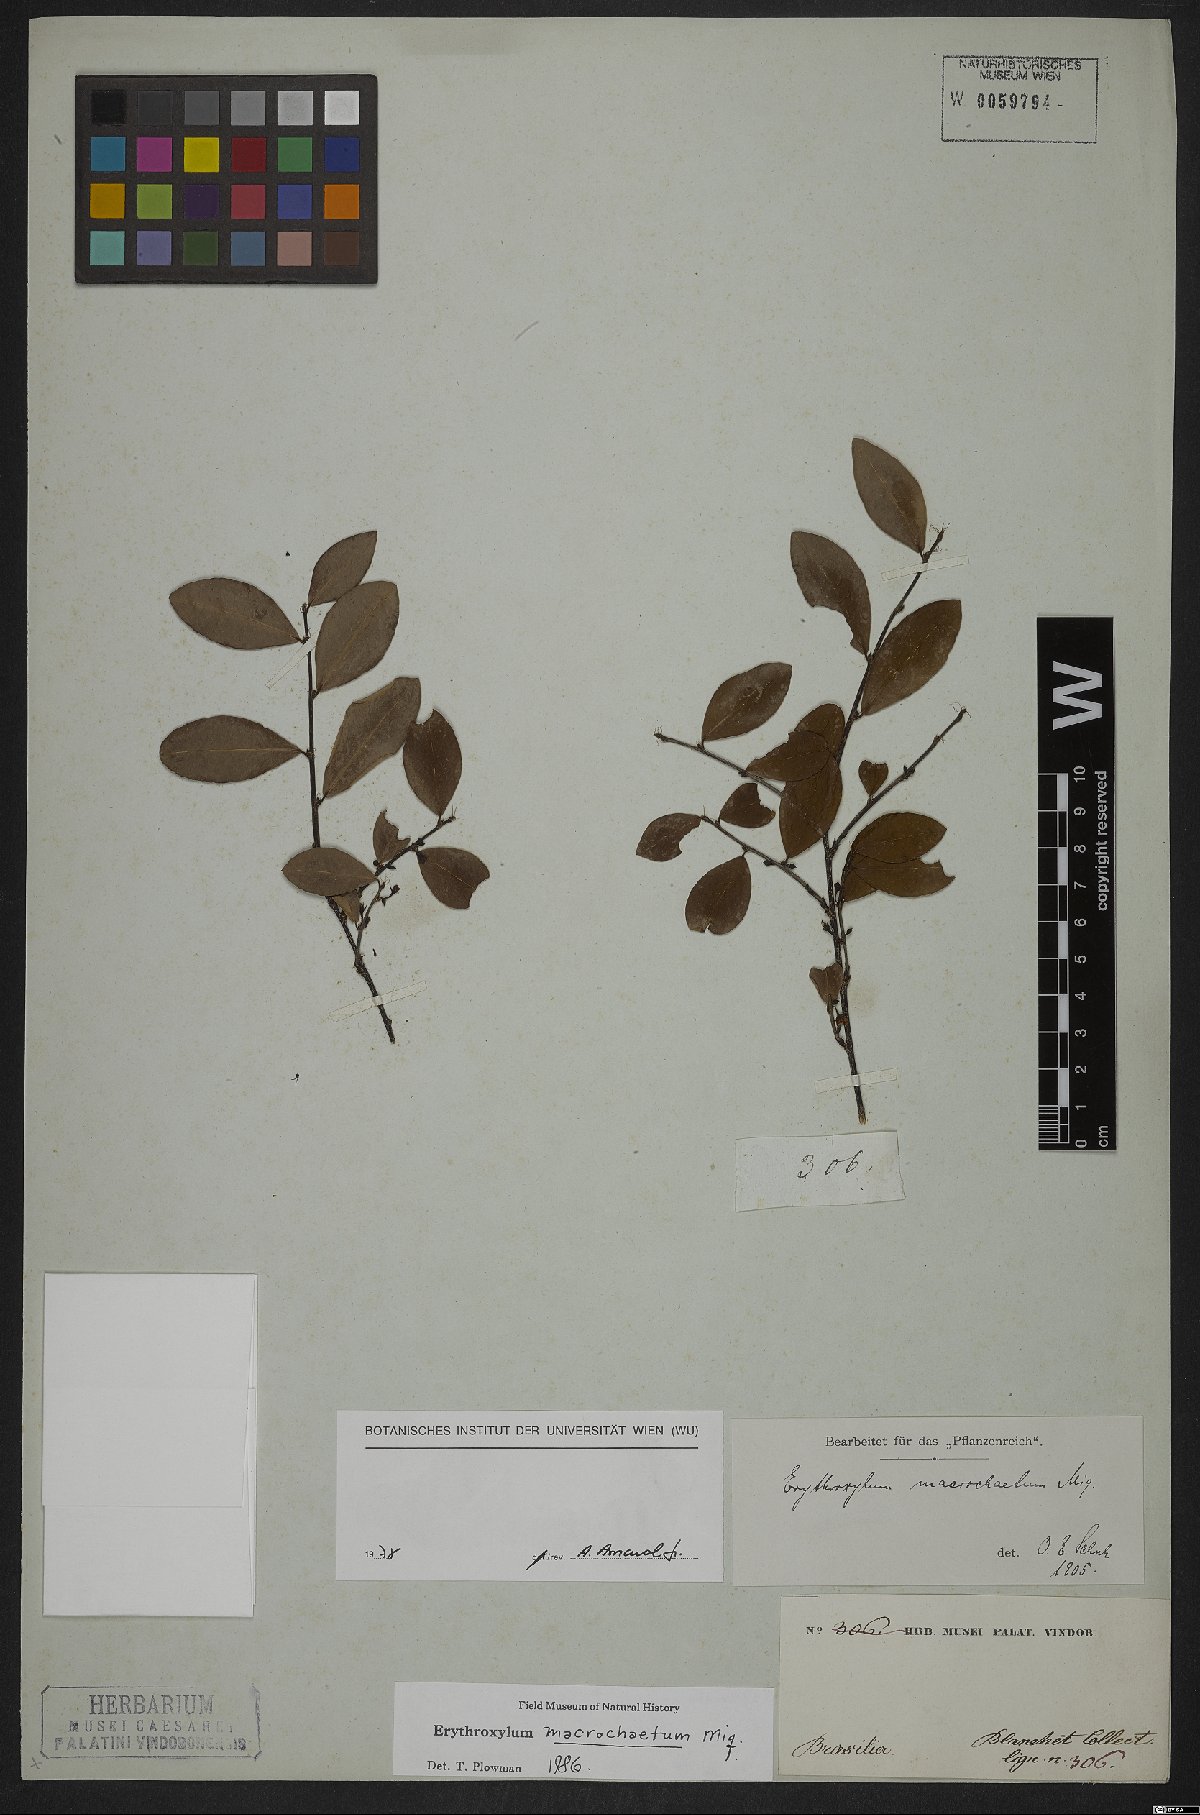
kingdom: Plantae
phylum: Tracheophyta
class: Magnoliopsida
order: Malpighiales
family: Erythroxylaceae
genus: Erythroxylum
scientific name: Erythroxylum macrochaetum
